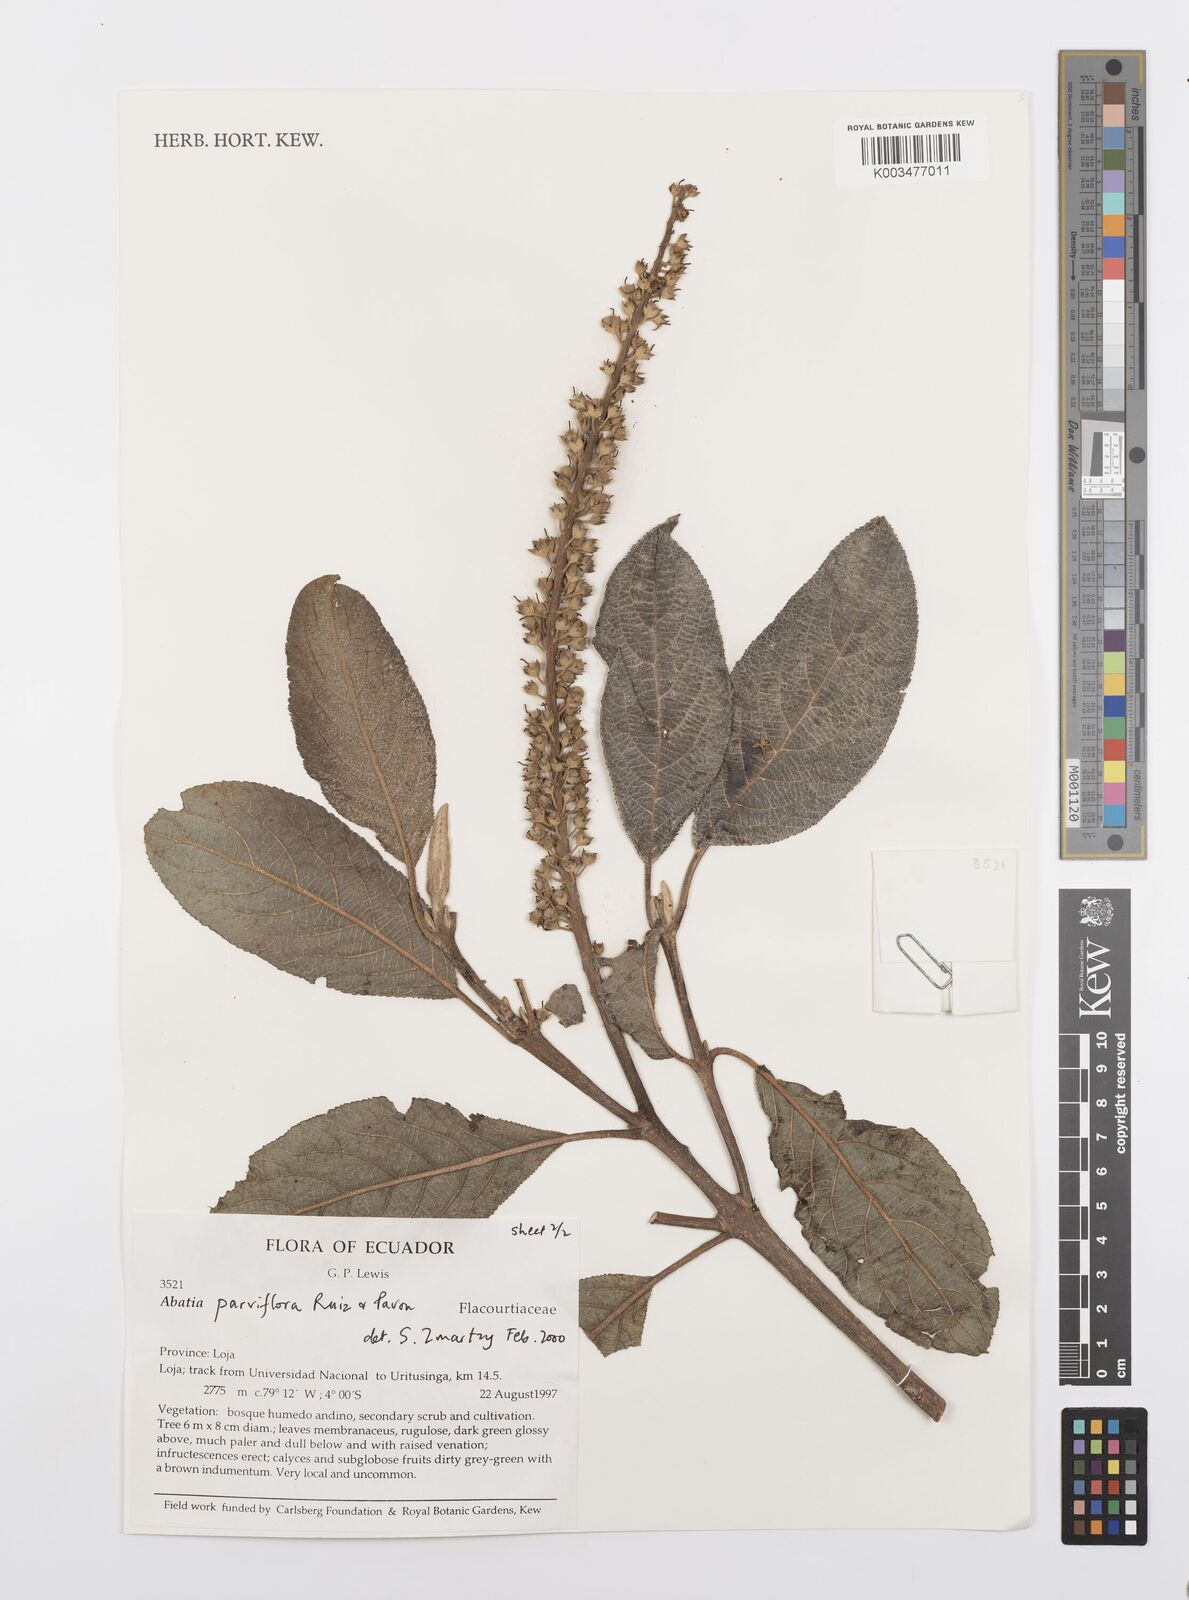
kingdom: Plantae
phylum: Tracheophyta
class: Magnoliopsida
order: Malpighiales
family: Salicaceae
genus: Abatia
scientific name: Abatia parviflora
